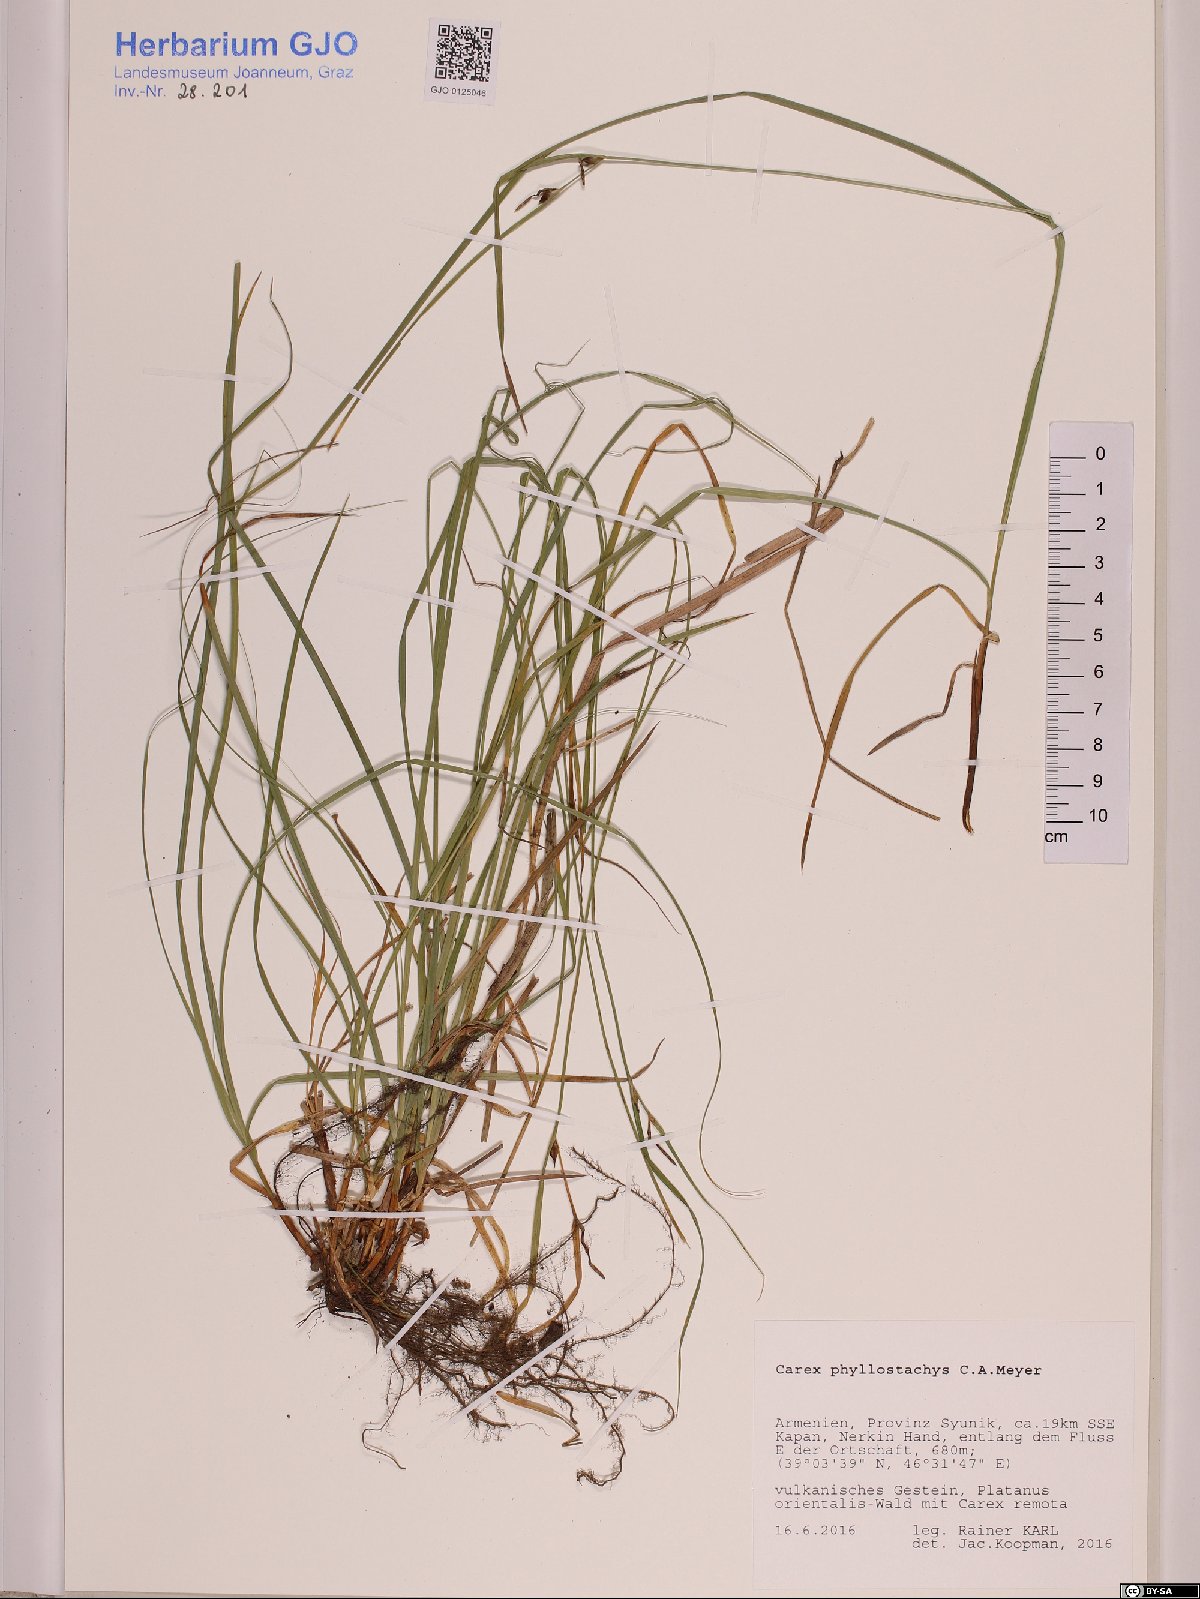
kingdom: Plantae
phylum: Tracheophyta
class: Liliopsida
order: Poales
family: Cyperaceae
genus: Carex
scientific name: Carex phyllostachys
